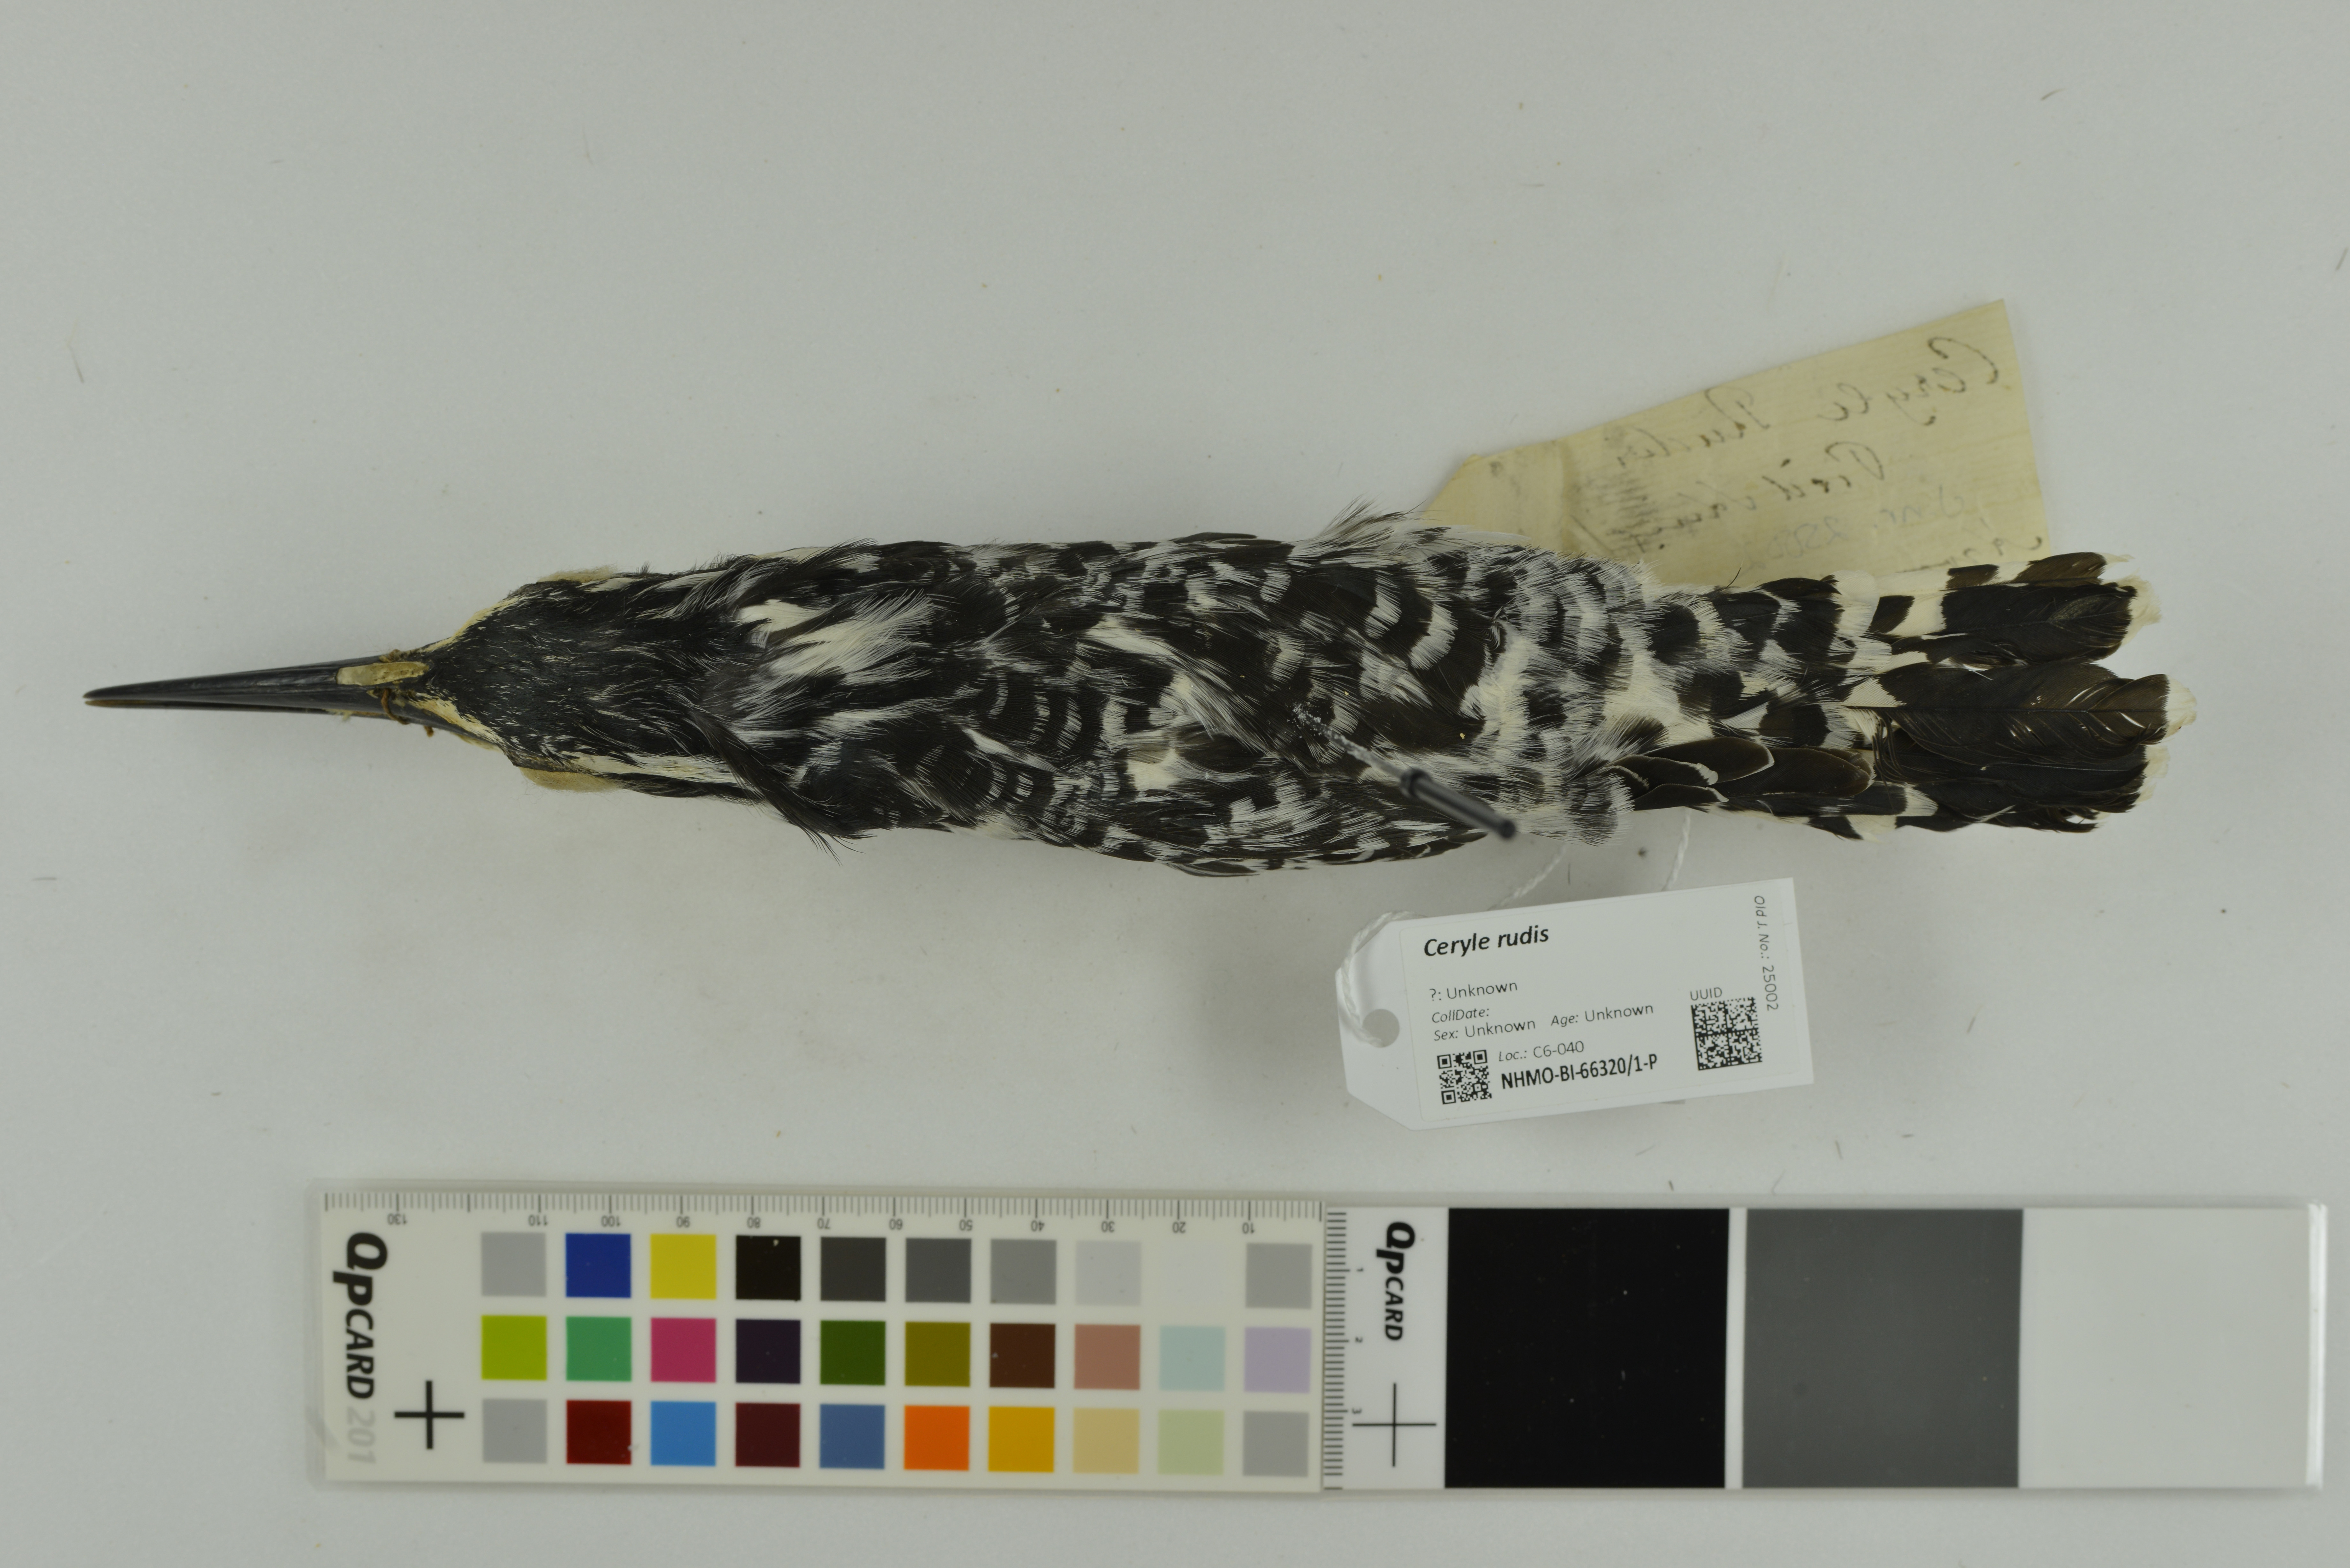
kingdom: Animalia
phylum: Chordata
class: Aves
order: Coraciiformes
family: Alcedinidae
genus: Ceryle
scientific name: Ceryle rudis
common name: Pied kingfisher
